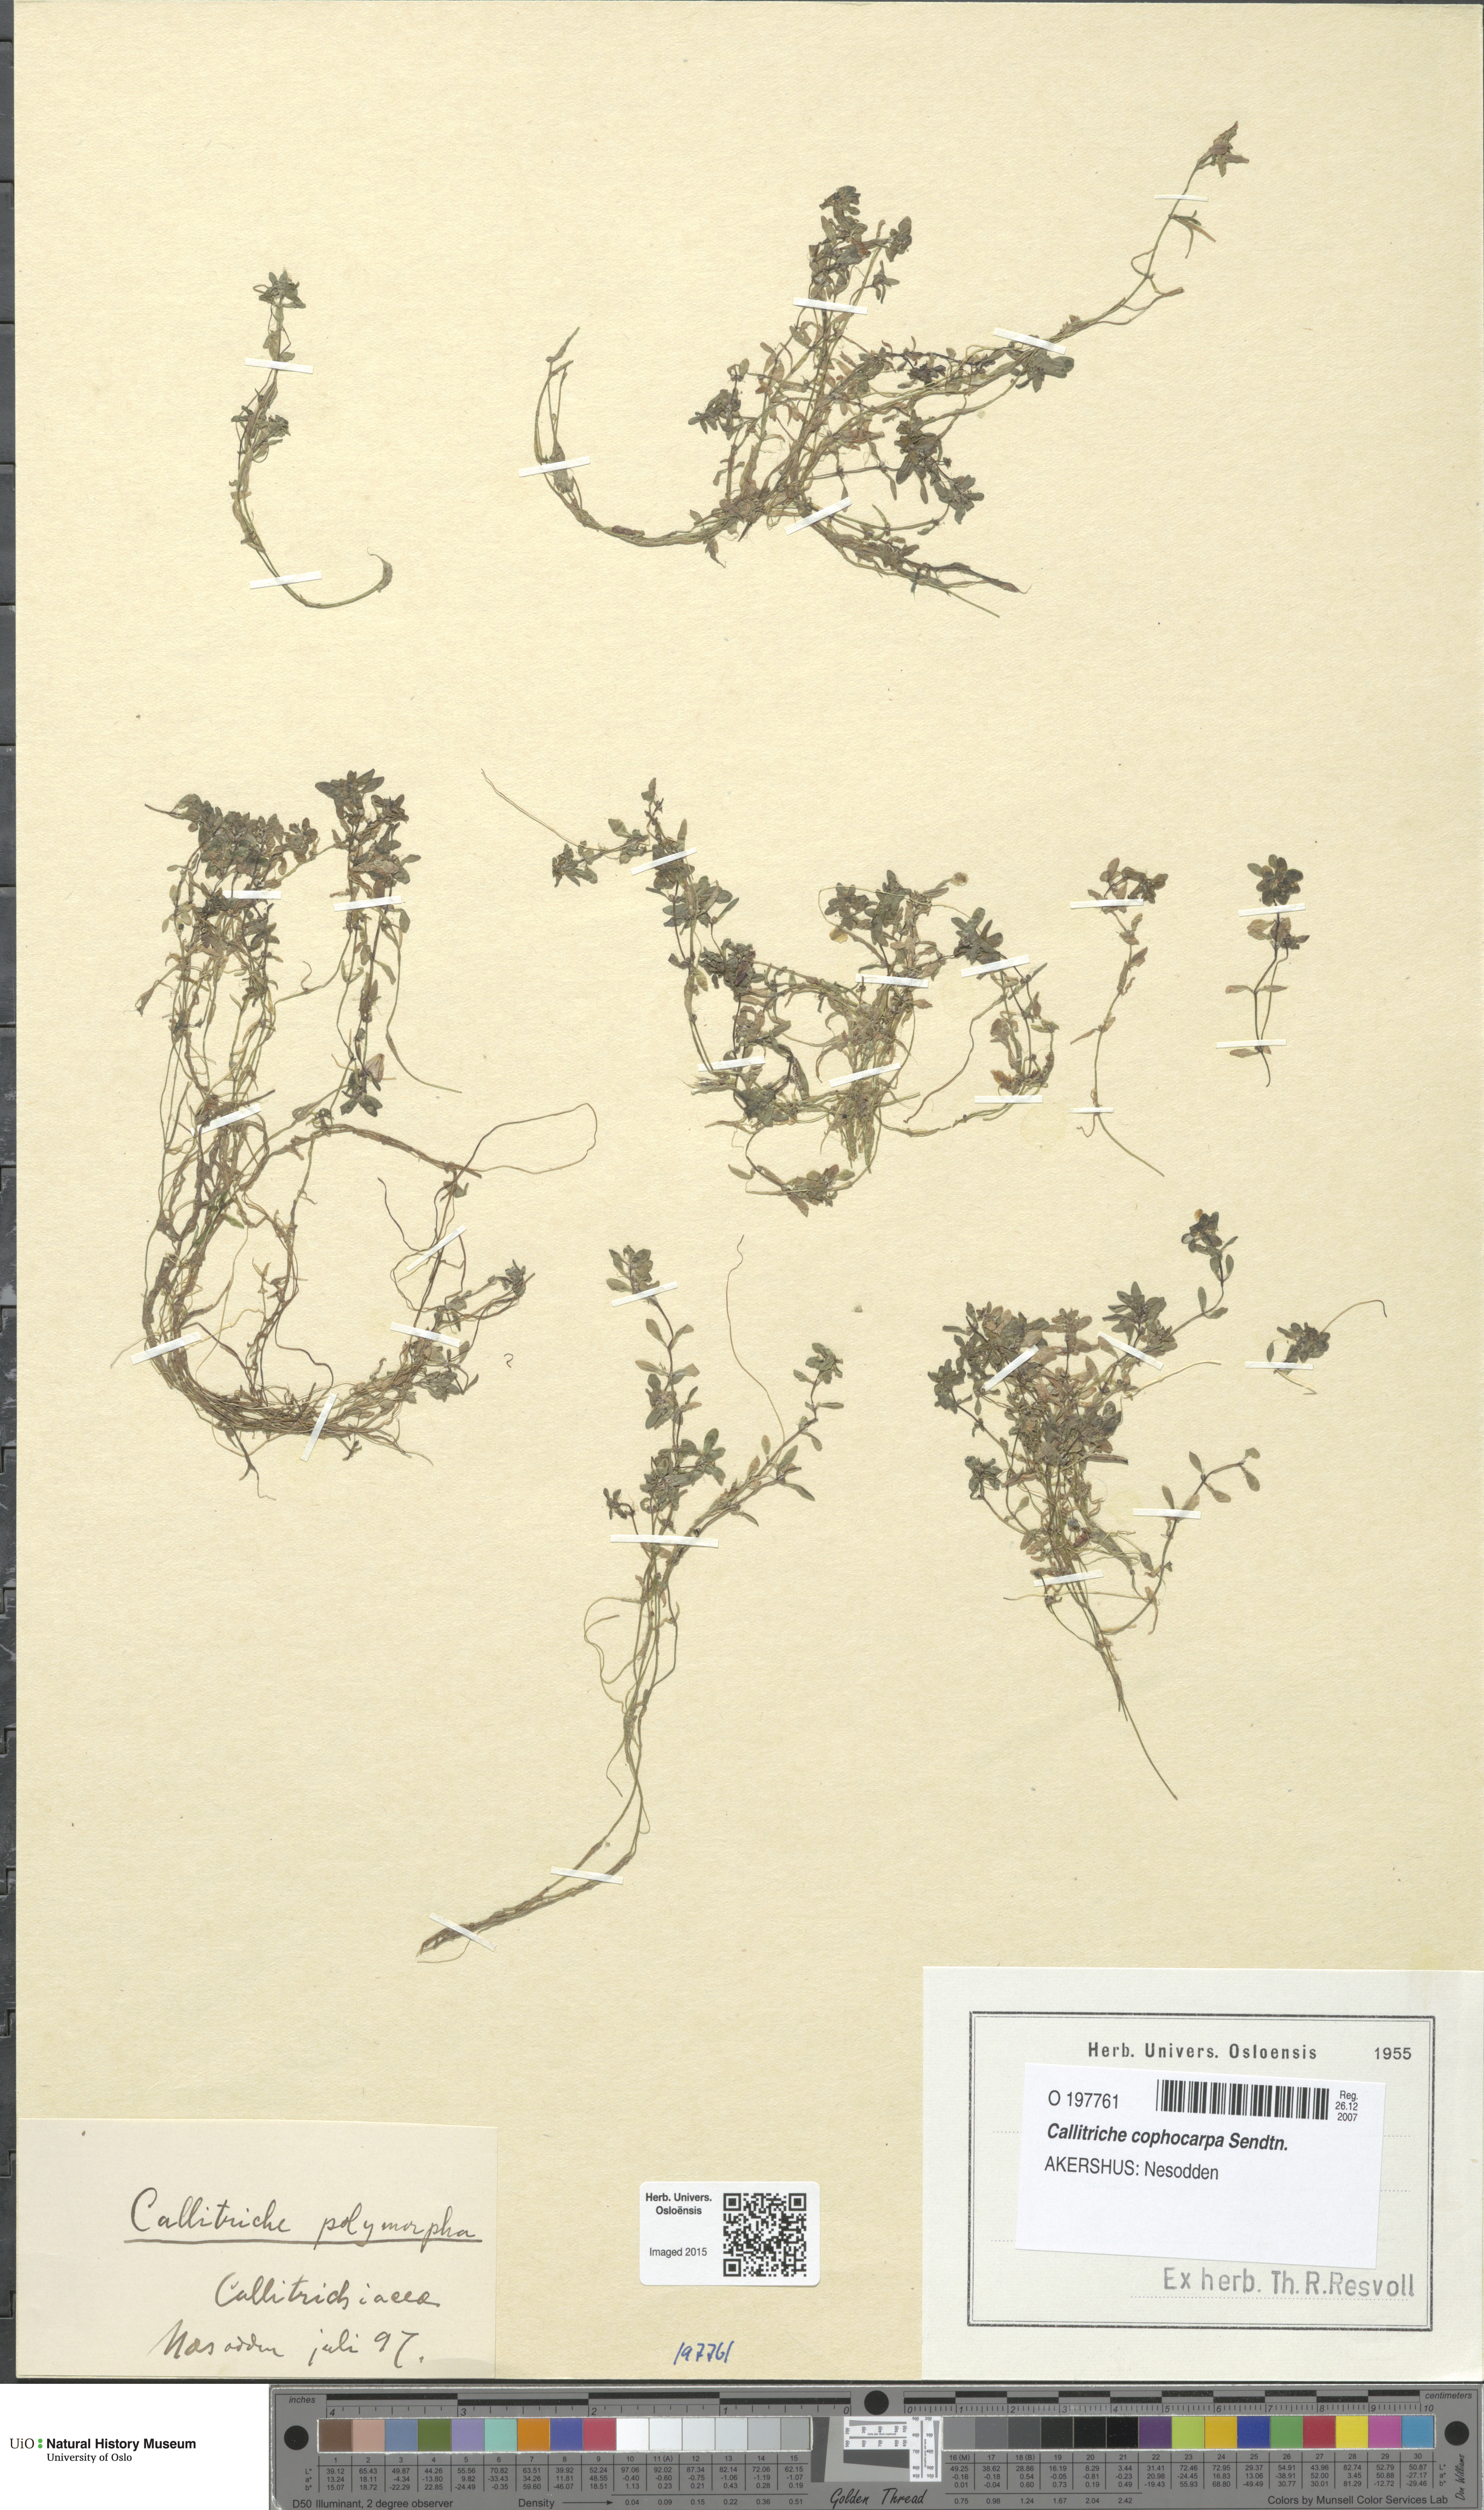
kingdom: Plantae
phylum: Tracheophyta
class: Magnoliopsida
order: Lamiales
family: Plantaginaceae
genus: Callitriche
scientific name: Callitriche cophocarpa
